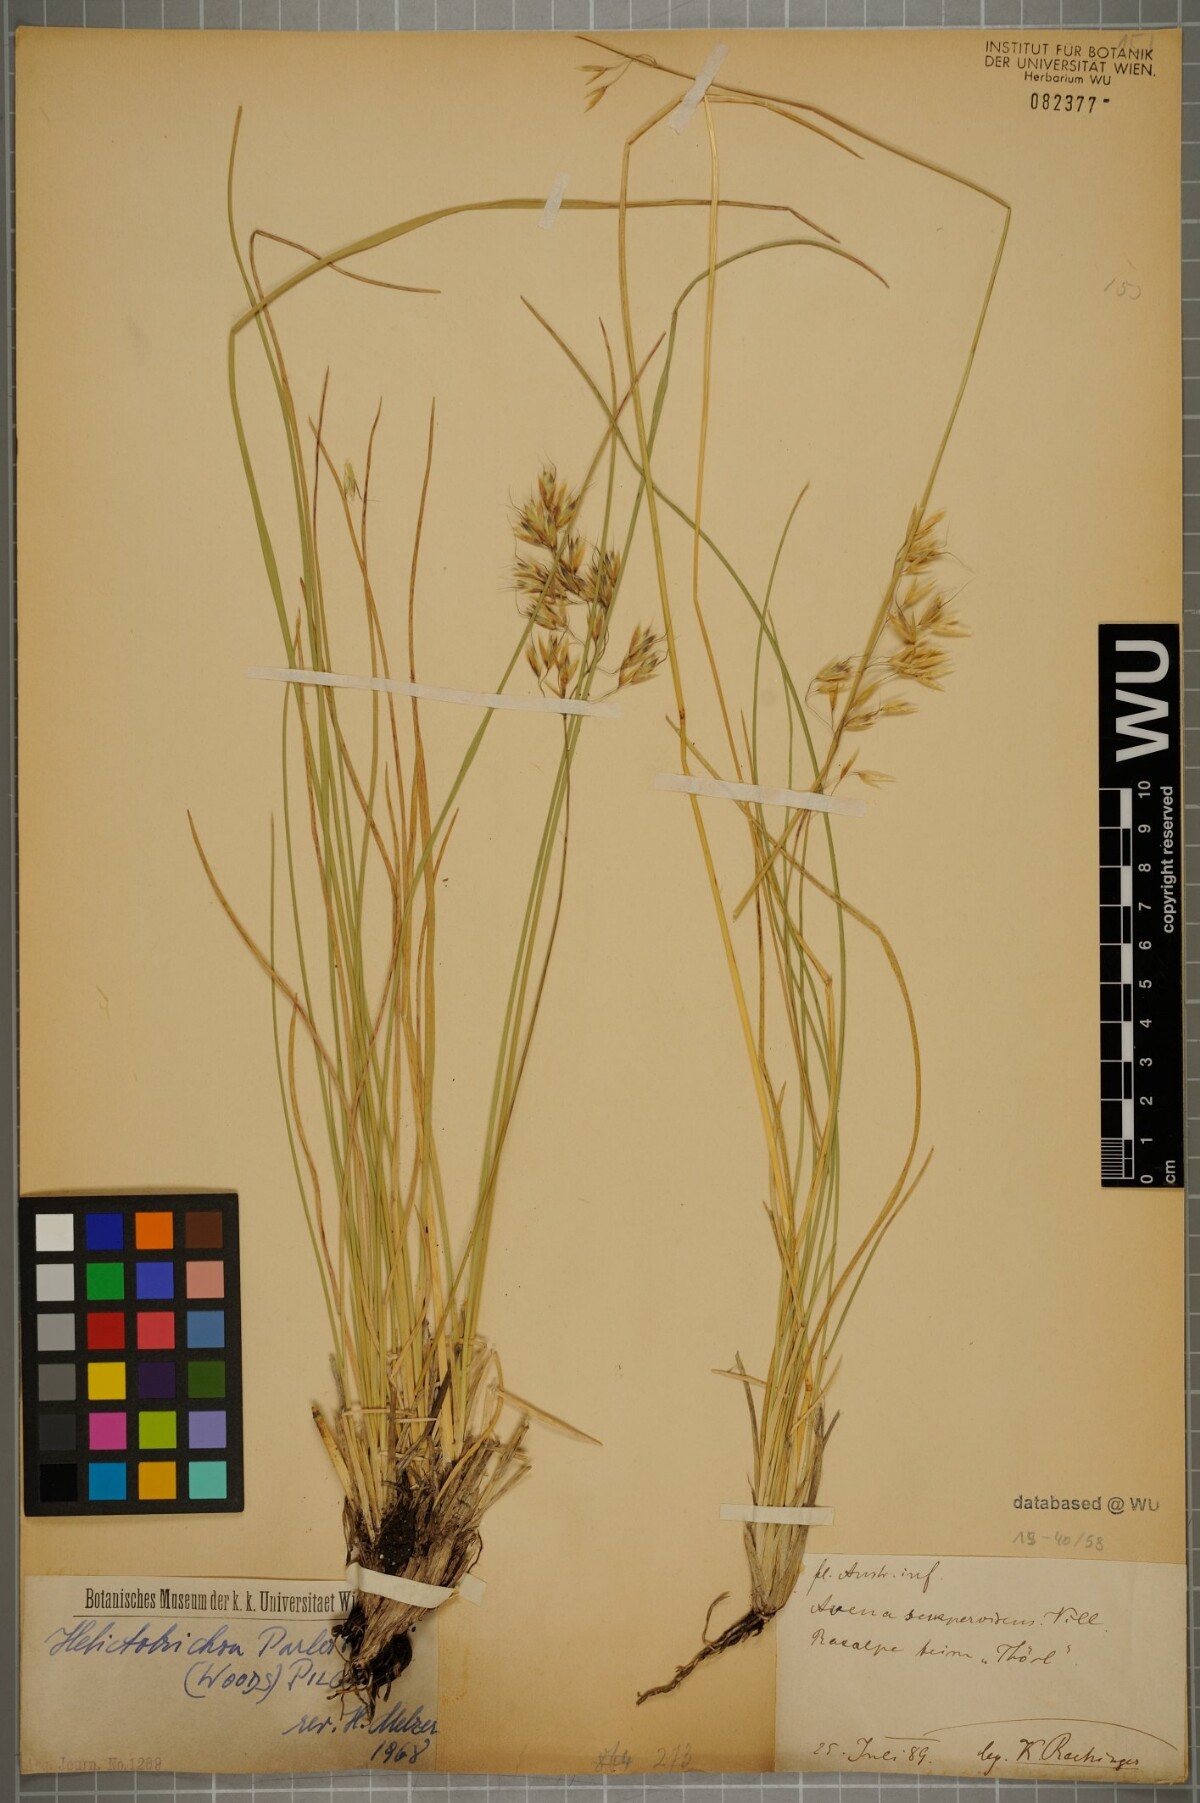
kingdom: Plantae
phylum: Tracheophyta
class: Liliopsida
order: Poales
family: Poaceae
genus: Helictotrichon
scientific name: Helictotrichon parlatorei
